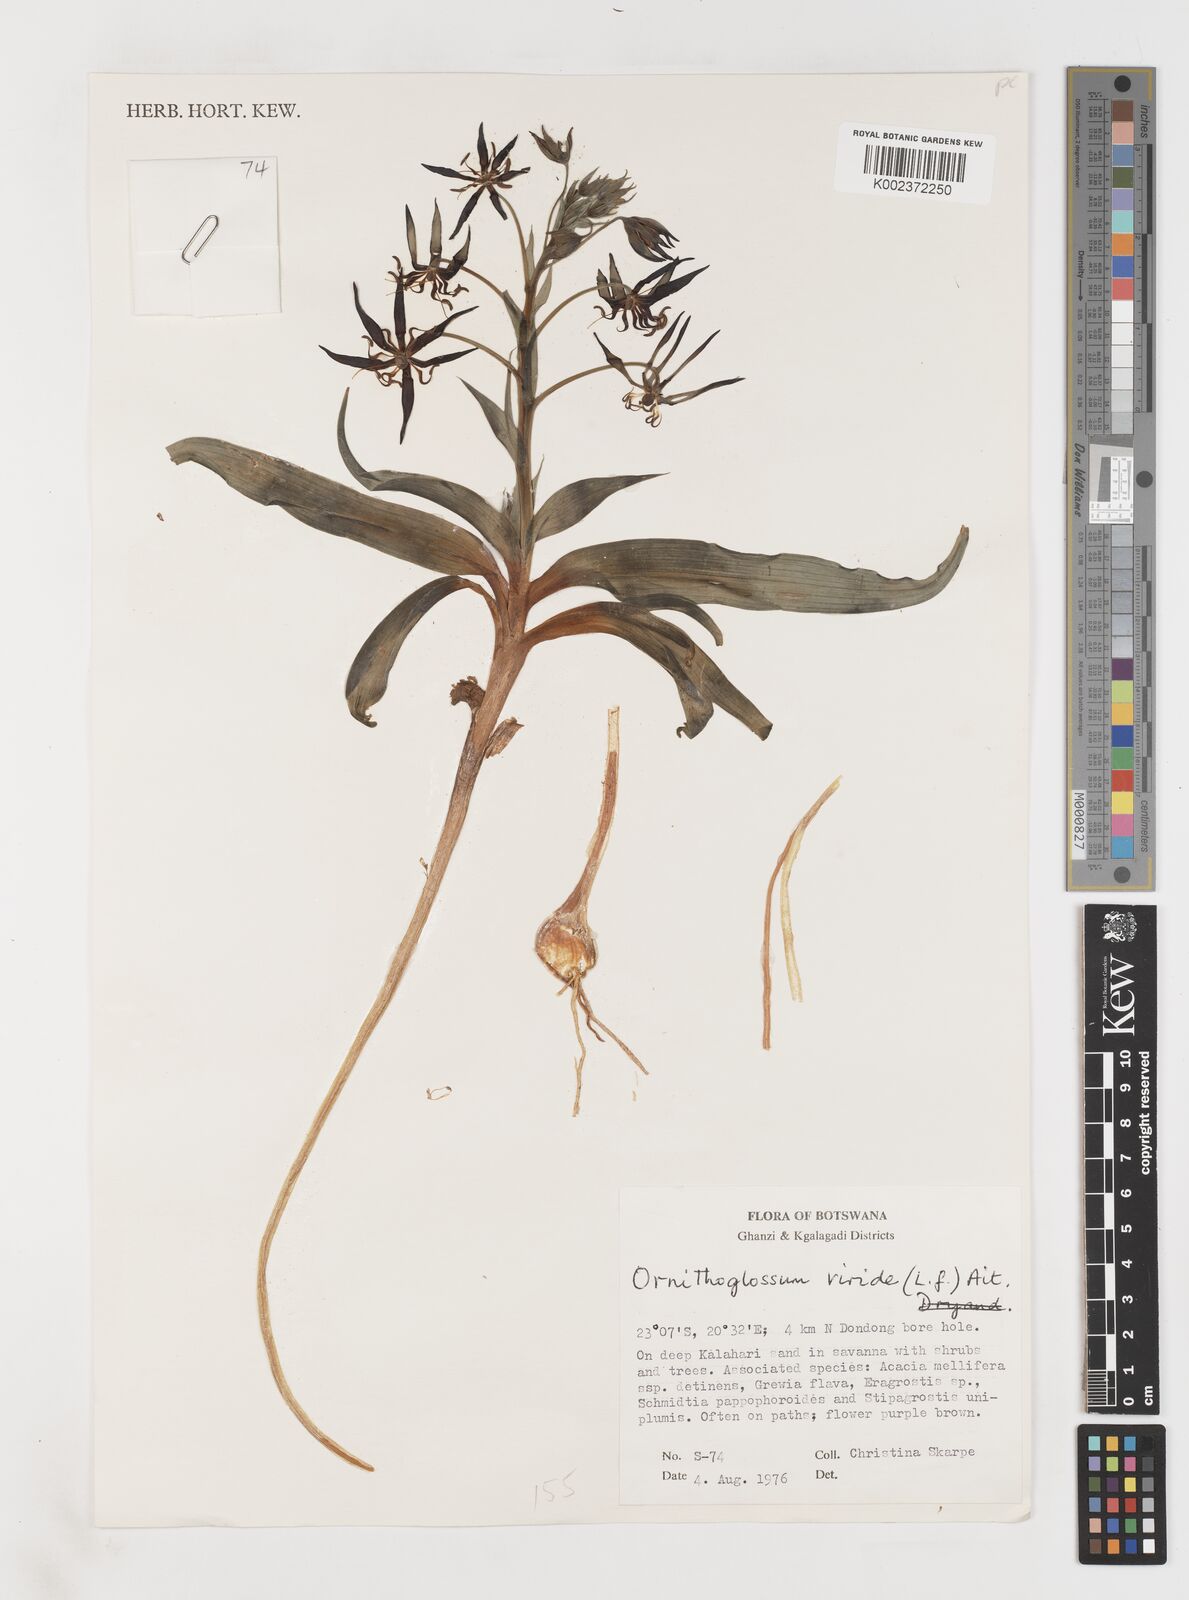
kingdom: Plantae
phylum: Tracheophyta
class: Liliopsida
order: Liliales
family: Colchicaceae
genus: Ornithoglossum
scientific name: Ornithoglossum vulgare
